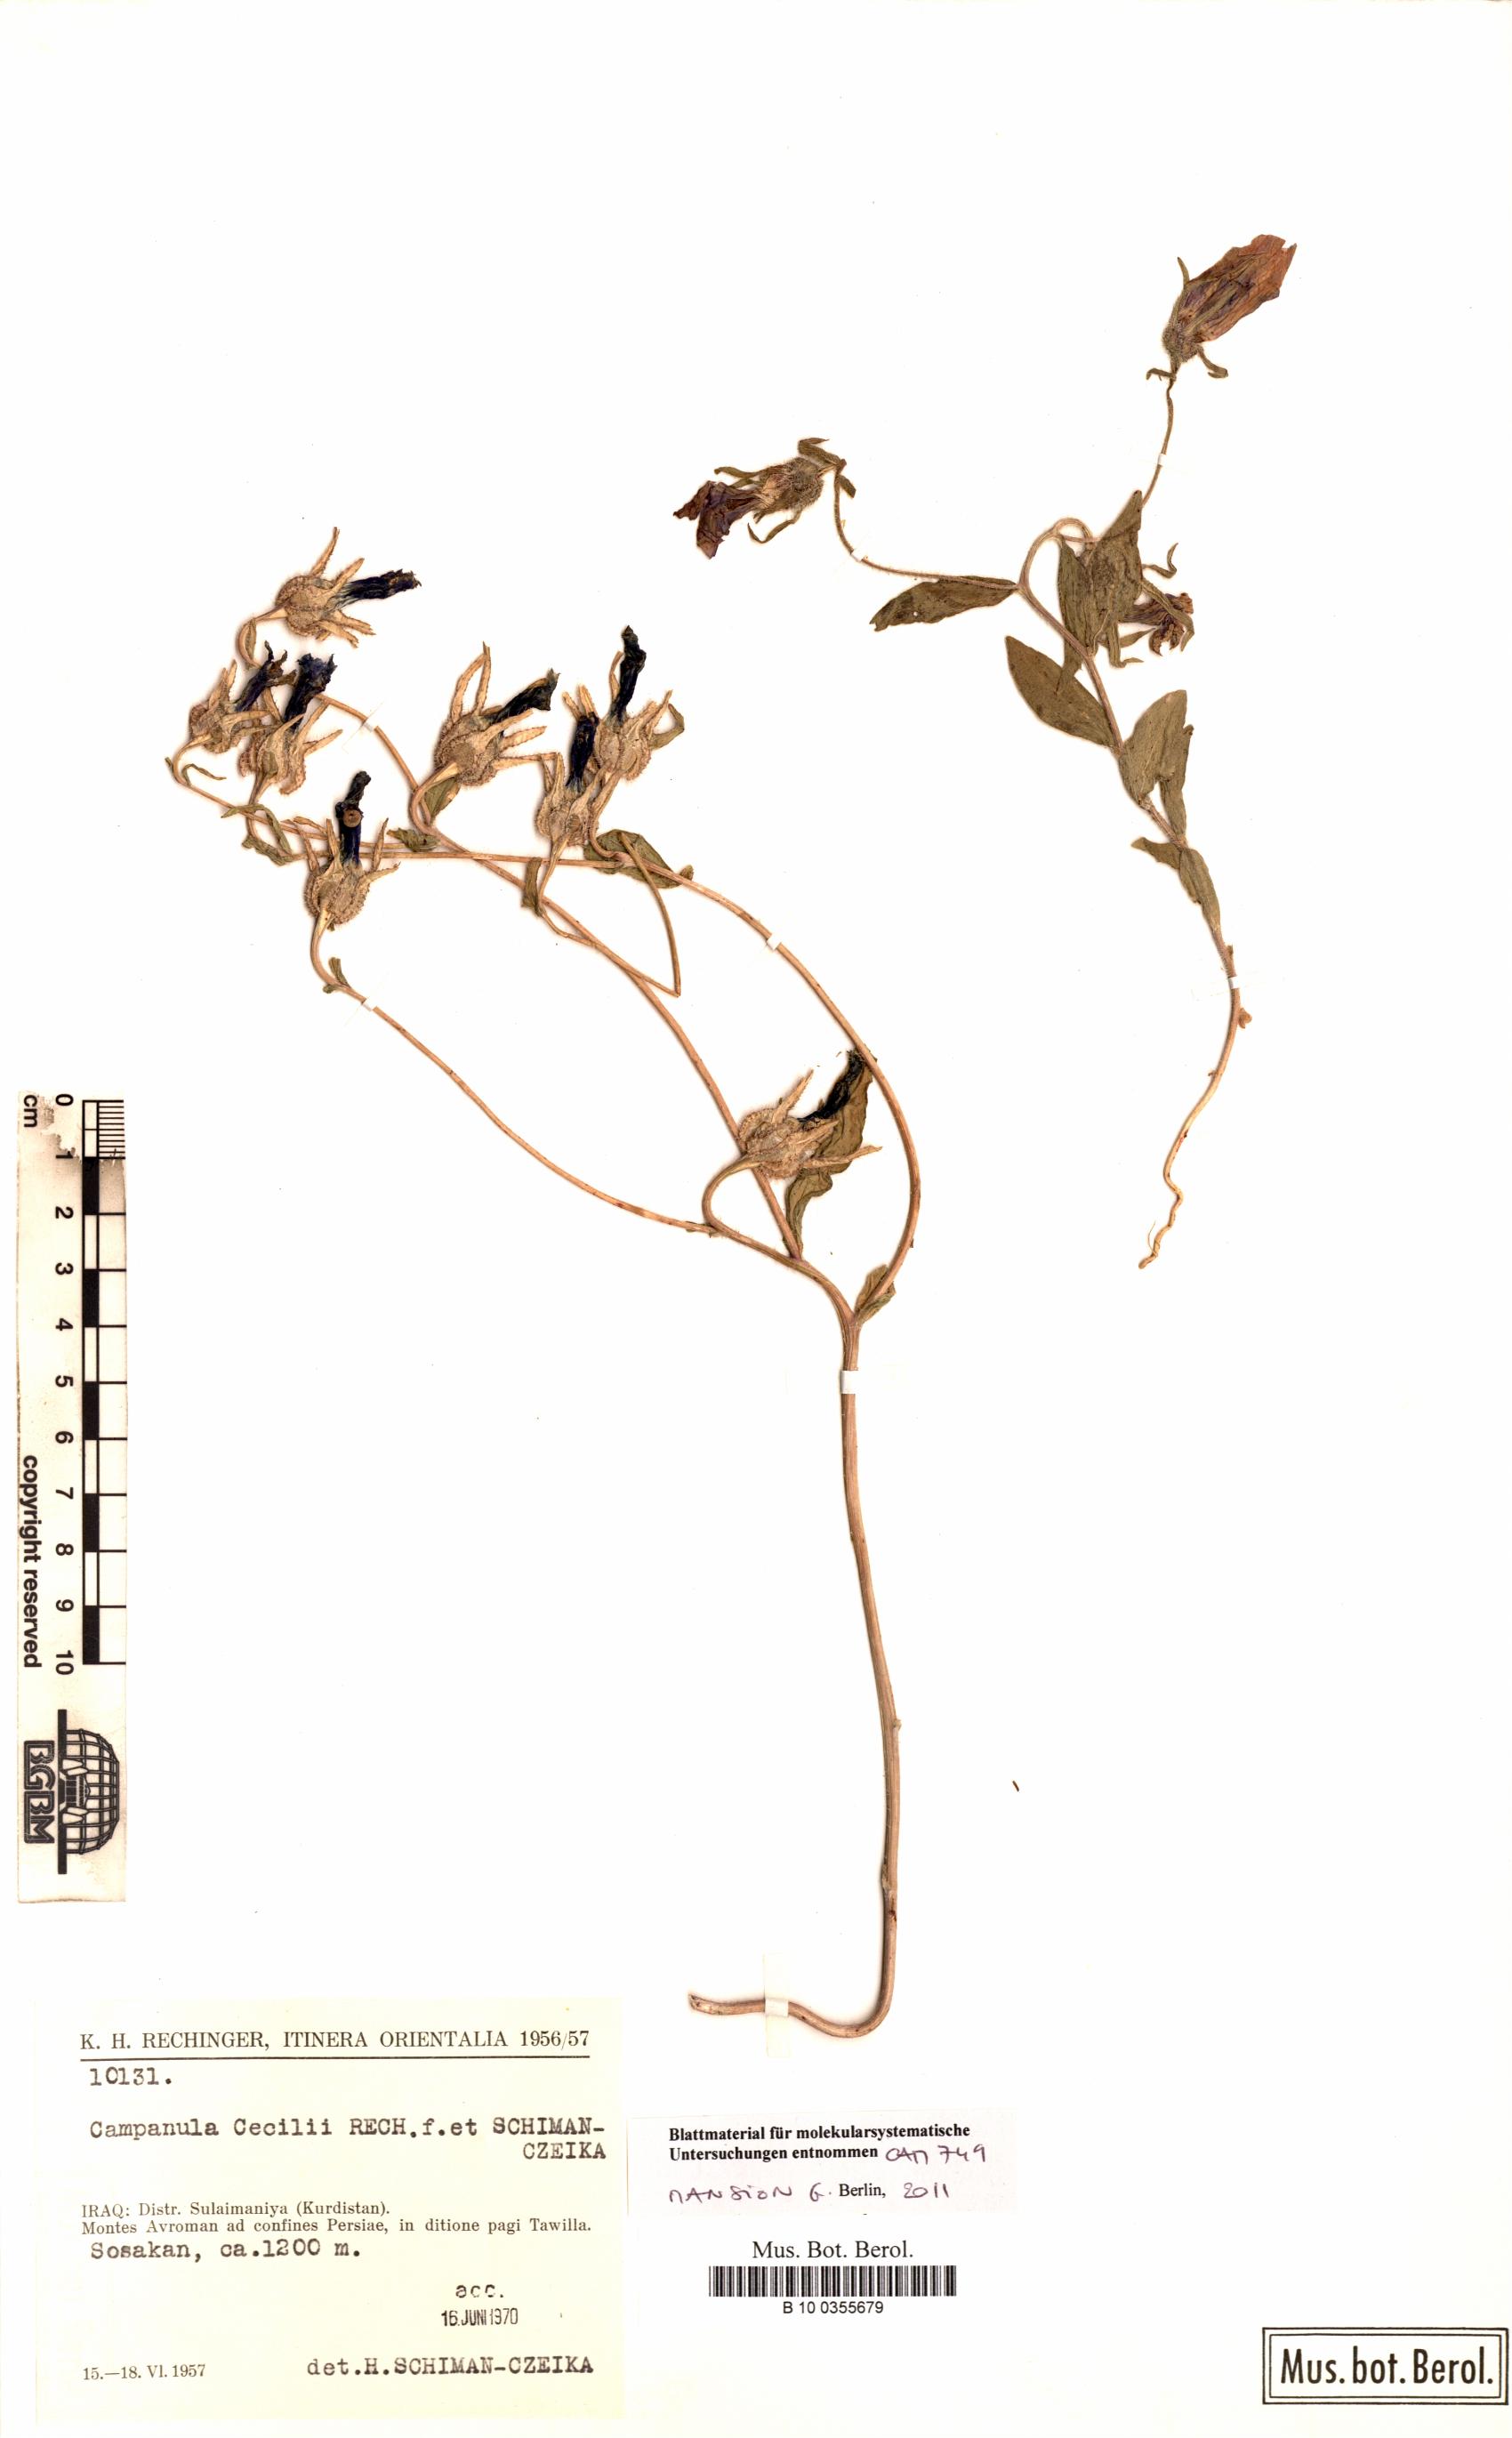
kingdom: Plantae
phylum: Tracheophyta
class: Magnoliopsida
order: Asterales
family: Campanulaceae
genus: Campanula
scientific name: Campanula reuteriana
